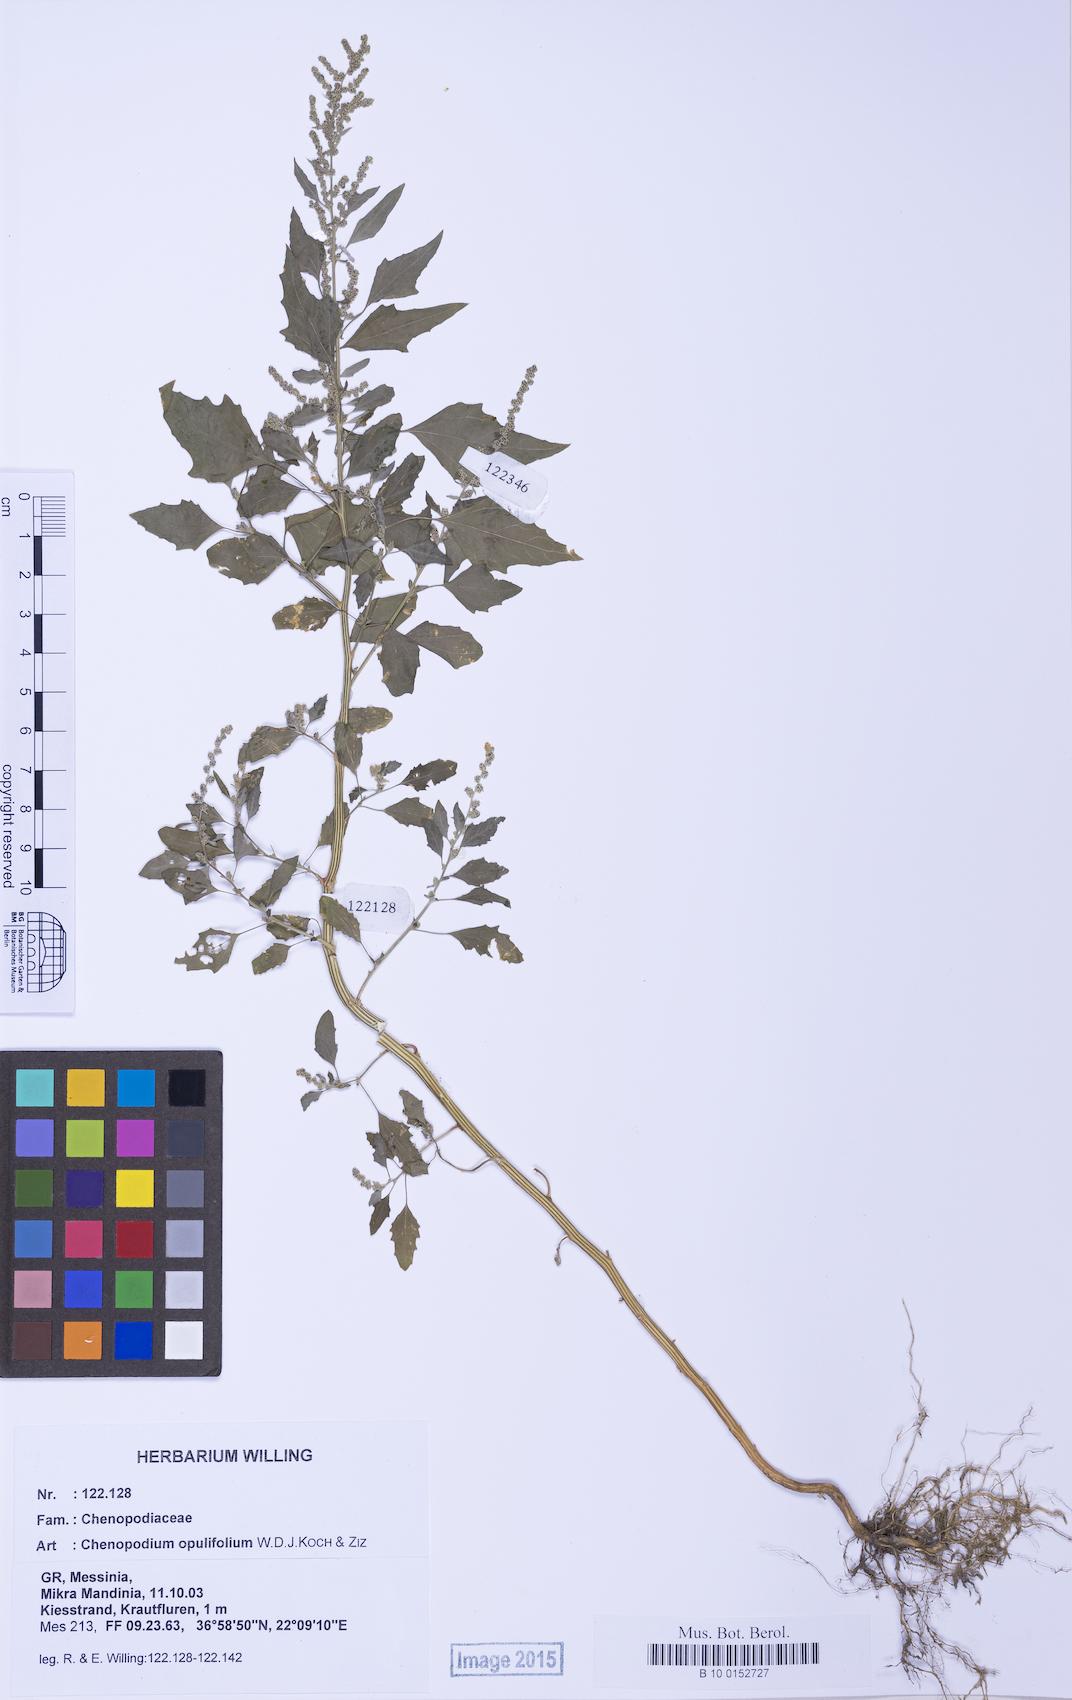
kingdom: Plantae
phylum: Tracheophyta
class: Magnoliopsida
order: Caryophyllales
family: Amaranthaceae
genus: Chenopodium
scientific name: Chenopodium album
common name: Fat-hen
